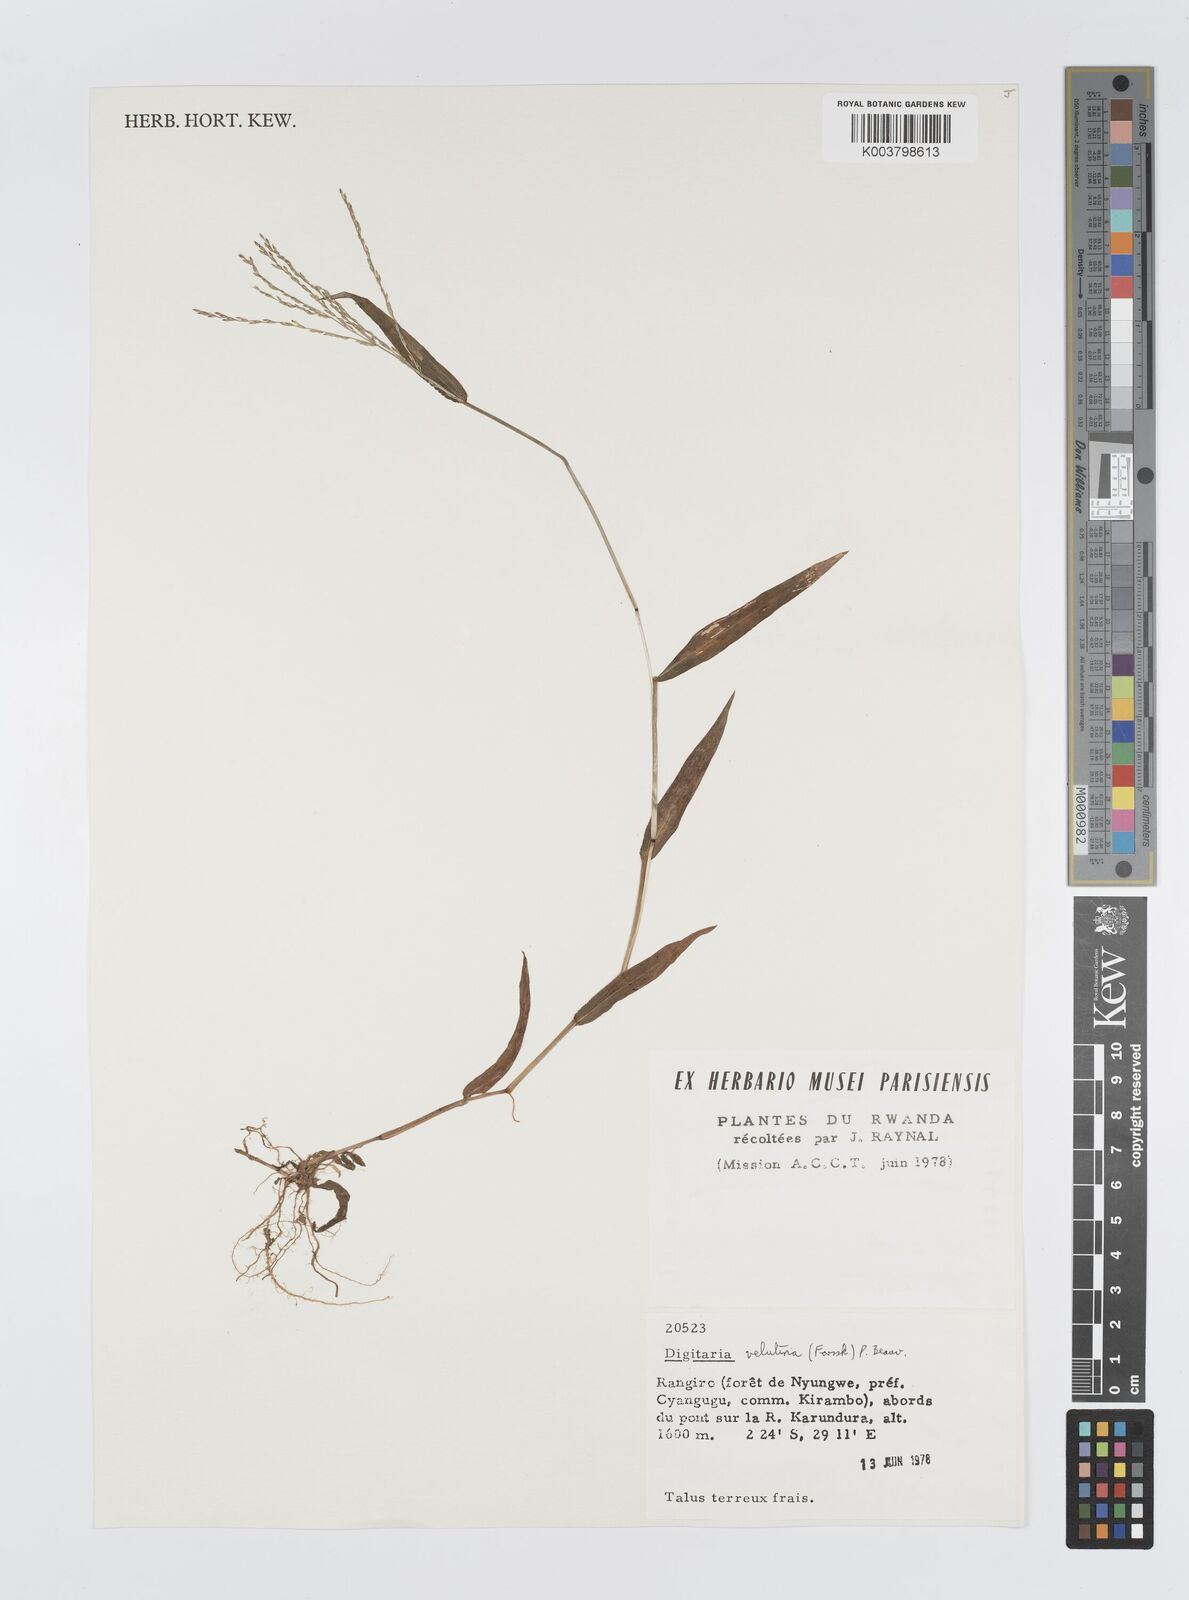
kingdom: Plantae
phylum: Tracheophyta
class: Liliopsida
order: Poales
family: Poaceae
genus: Digitaria
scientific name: Digitaria velutina
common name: Long-plume finger grass
